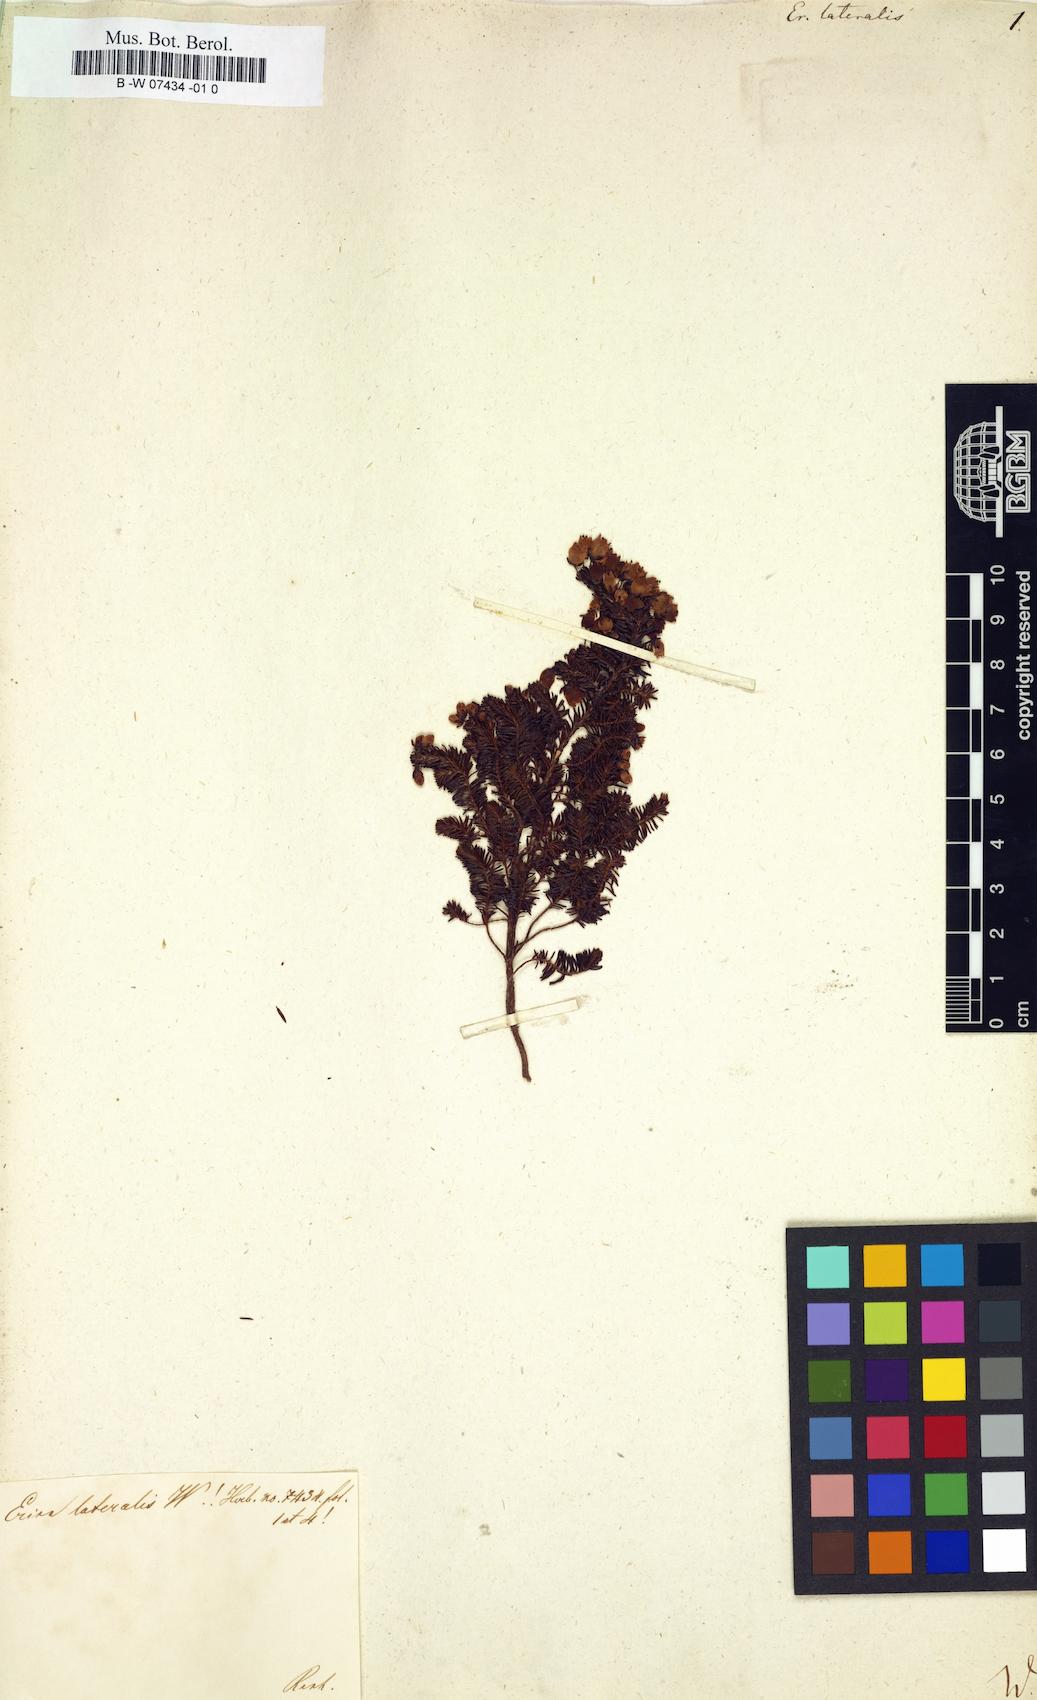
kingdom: Plantae
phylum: Tracheophyta
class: Magnoliopsida
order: Ericales
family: Ericaceae
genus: Erica
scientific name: Erica lateralis
